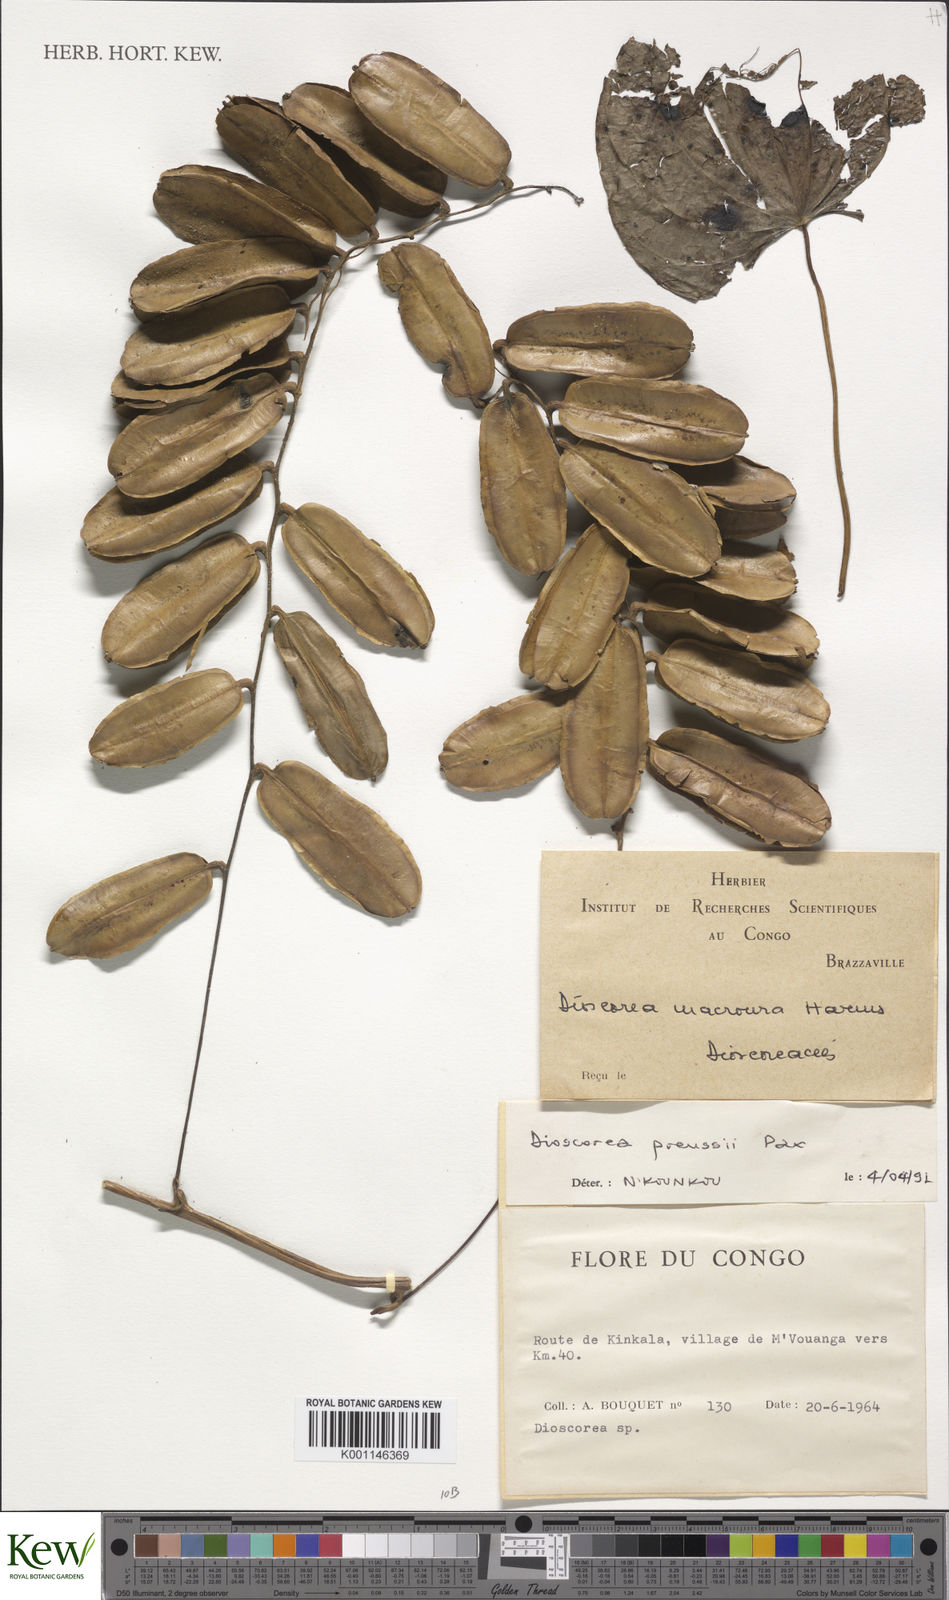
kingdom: Plantae
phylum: Tracheophyta
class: Liliopsida
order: Dioscoreales
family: Dioscoreaceae
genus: Dioscorea
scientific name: Dioscorea preussii
